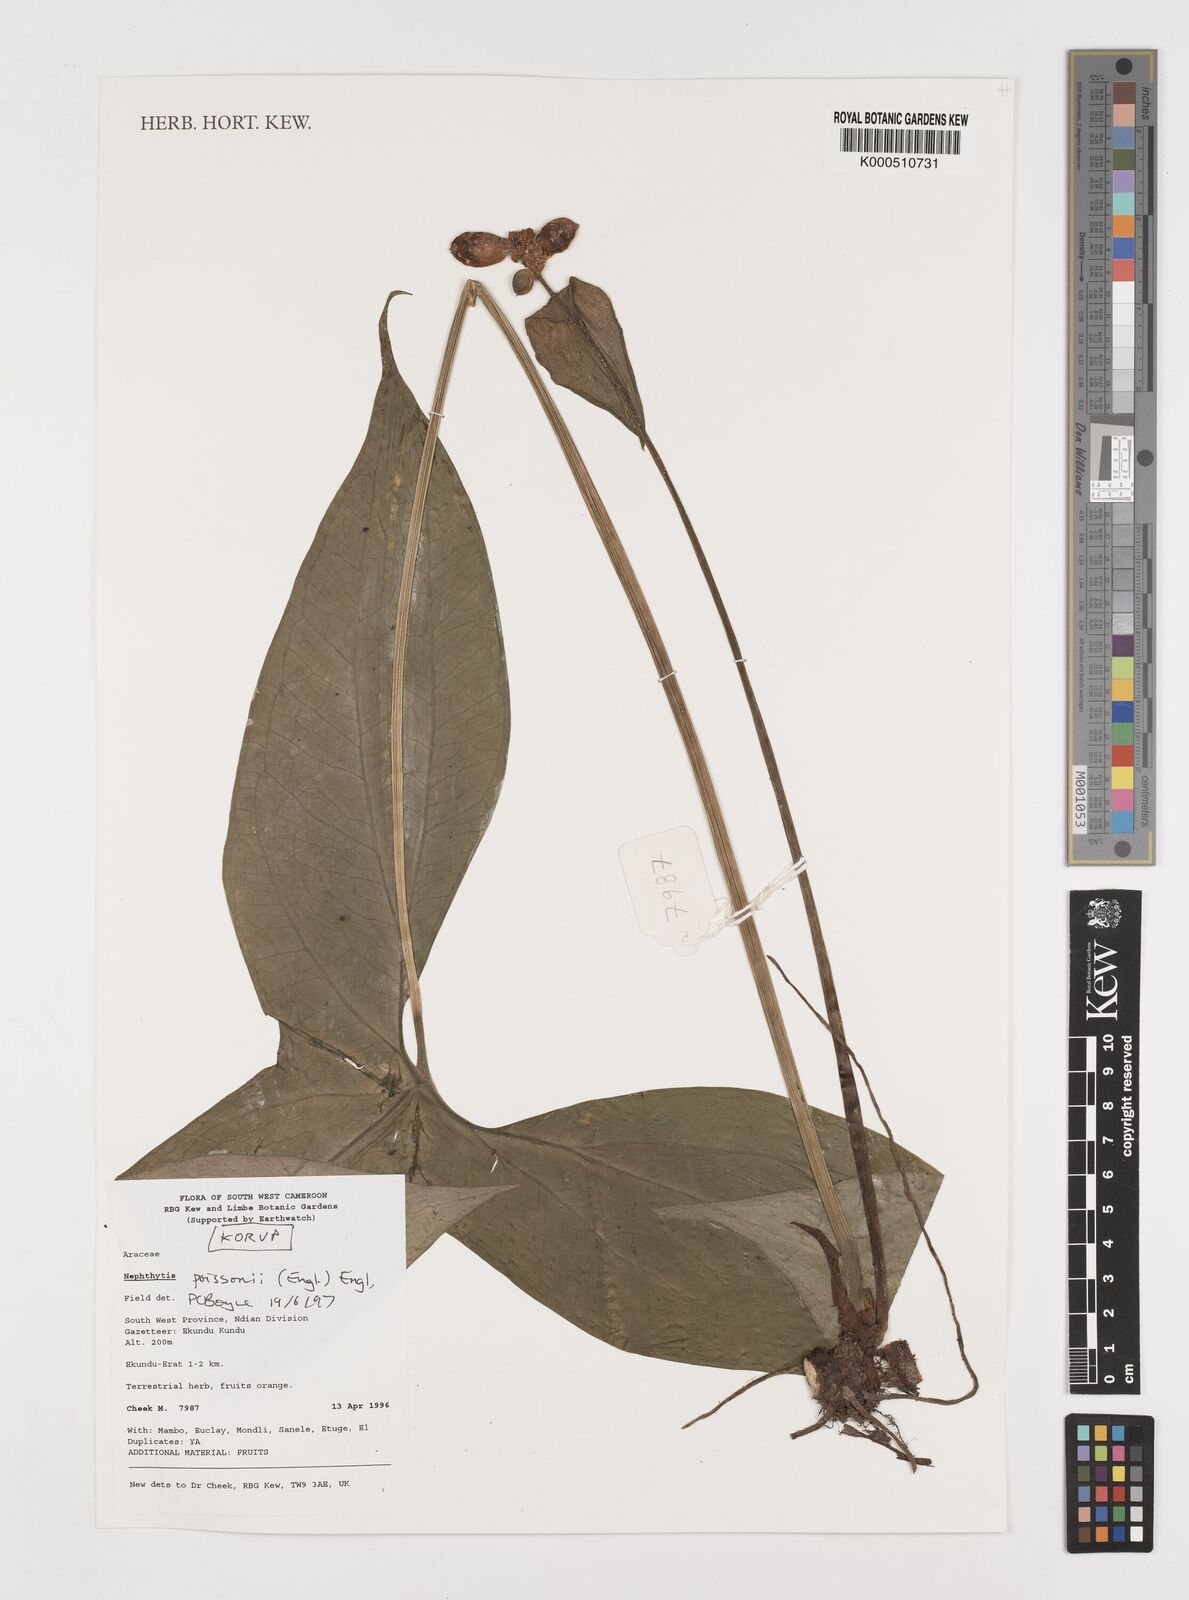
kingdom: Plantae
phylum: Tracheophyta
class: Liliopsida
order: Alismatales
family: Araceae
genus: Nephthytis
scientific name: Nephthytis poissonii
